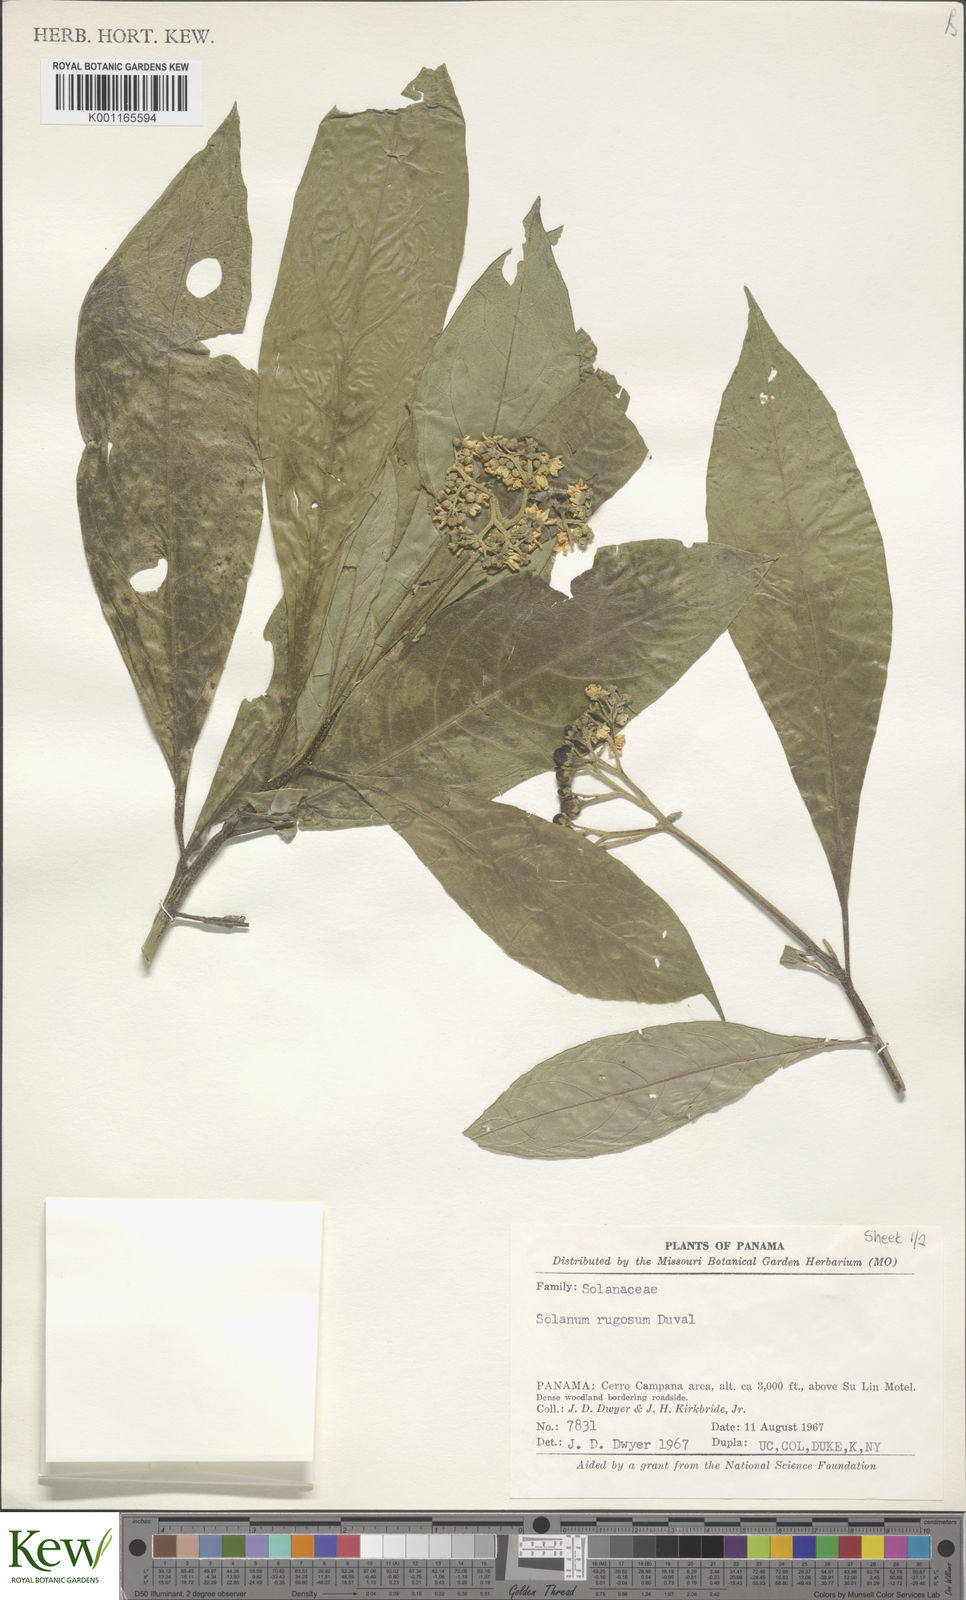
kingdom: Plantae
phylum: Tracheophyta
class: Magnoliopsida
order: Solanales
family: Solanaceae
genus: Solanum
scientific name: Solanum rugosum
